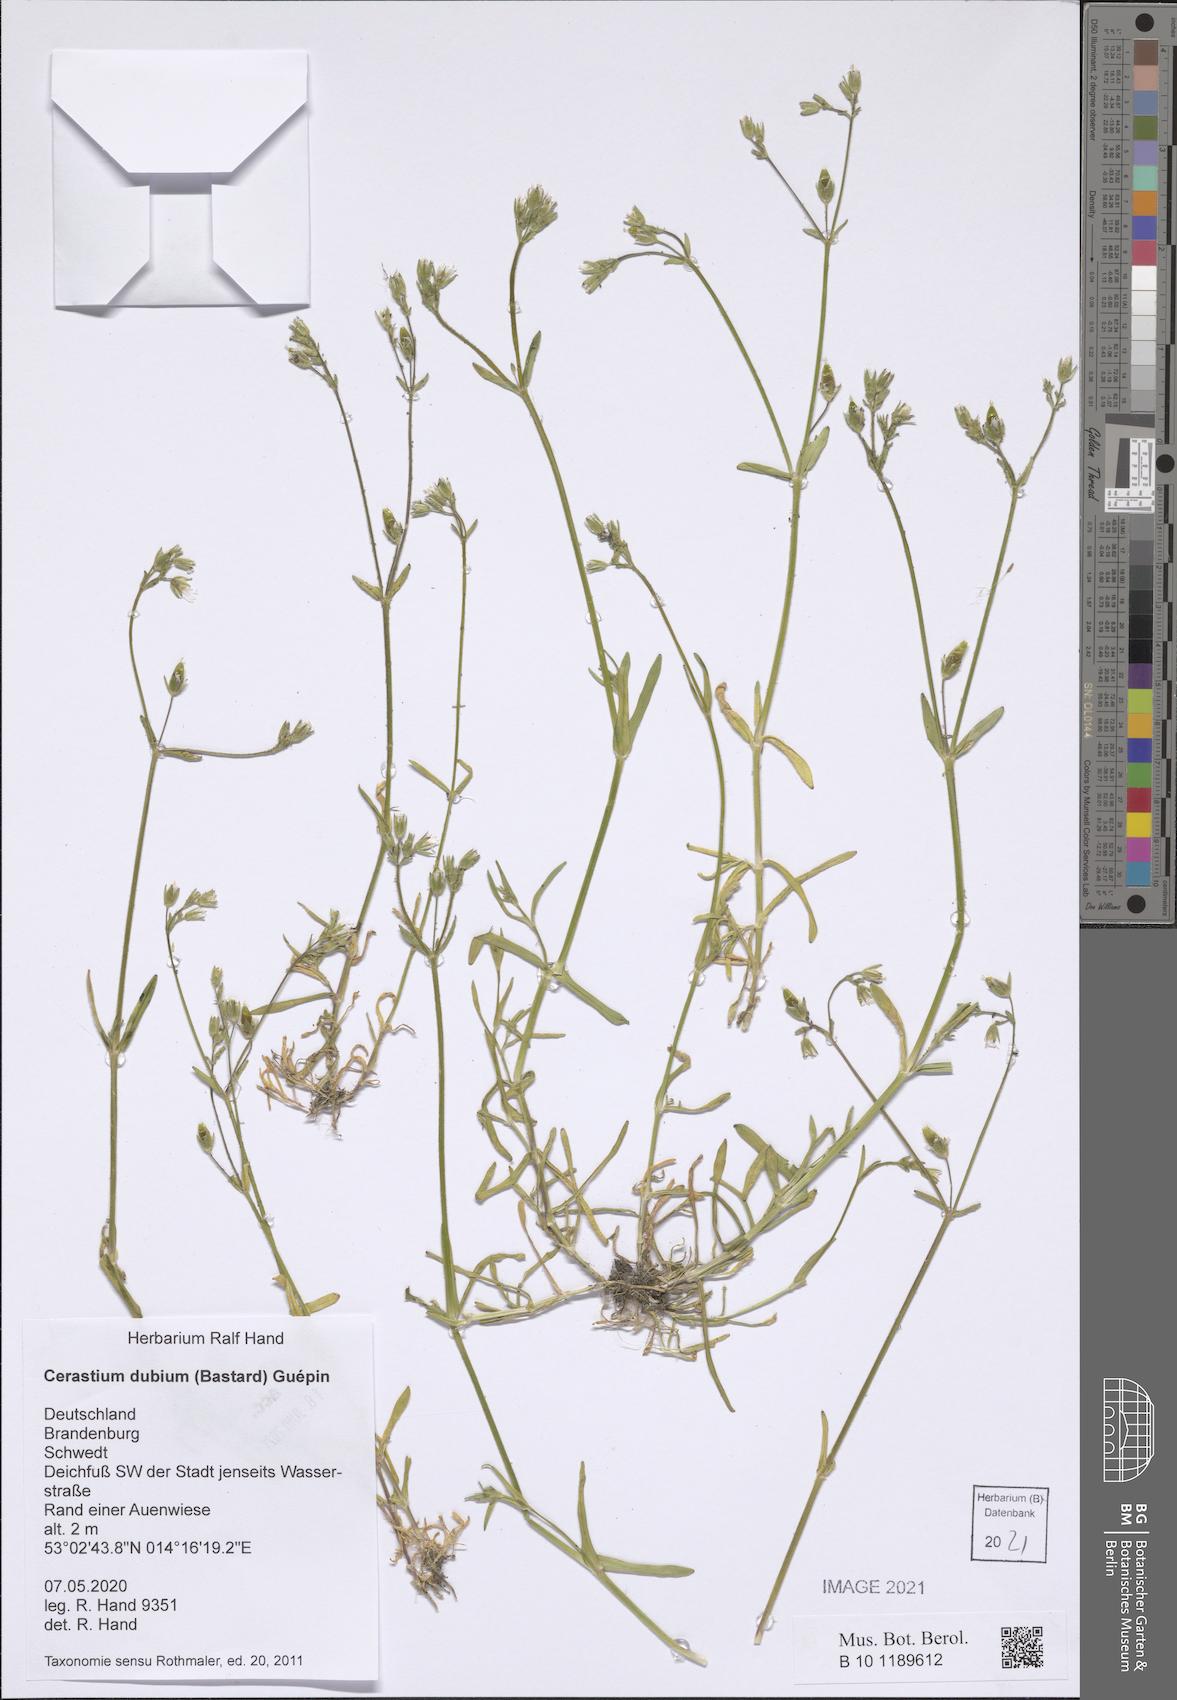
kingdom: Plantae
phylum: Tracheophyta
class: Magnoliopsida
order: Caryophyllales
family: Caryophyllaceae
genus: Dichodon
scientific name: Dichodon viscidum
